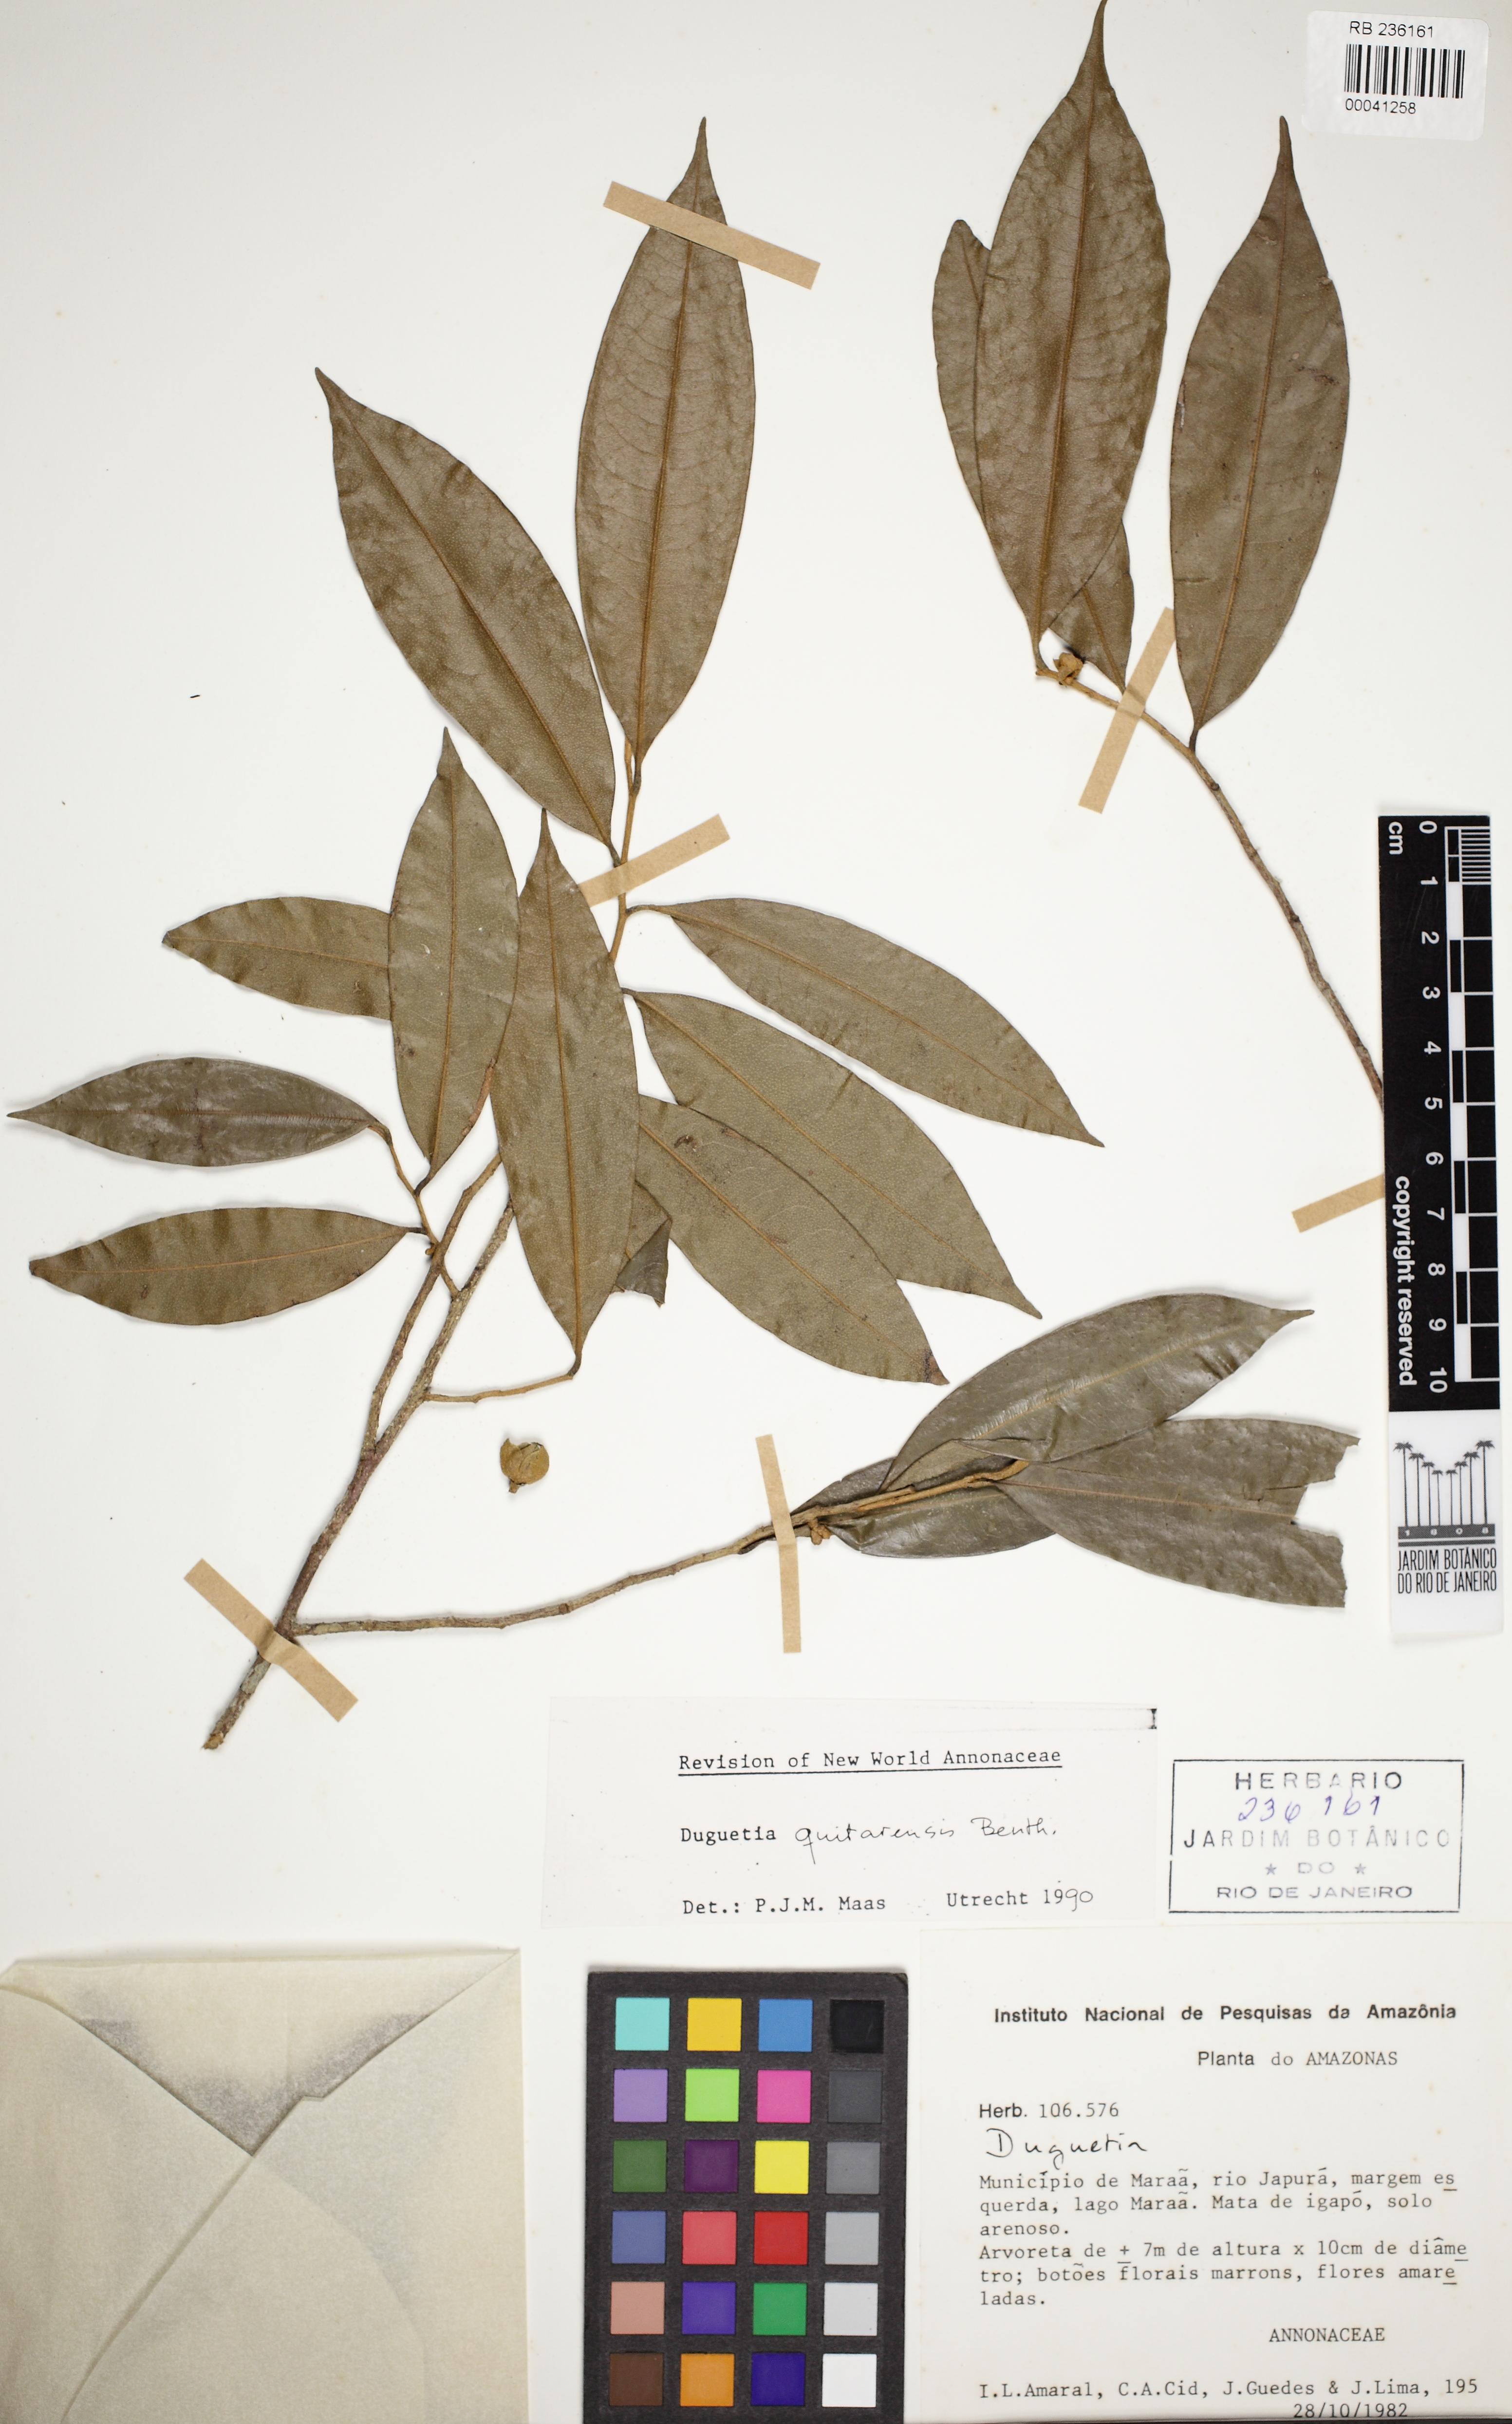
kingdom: Plantae
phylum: Tracheophyta
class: Magnoliopsida
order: Magnoliales
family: Annonaceae
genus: Duguetia
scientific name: Duguetia quitarensis
